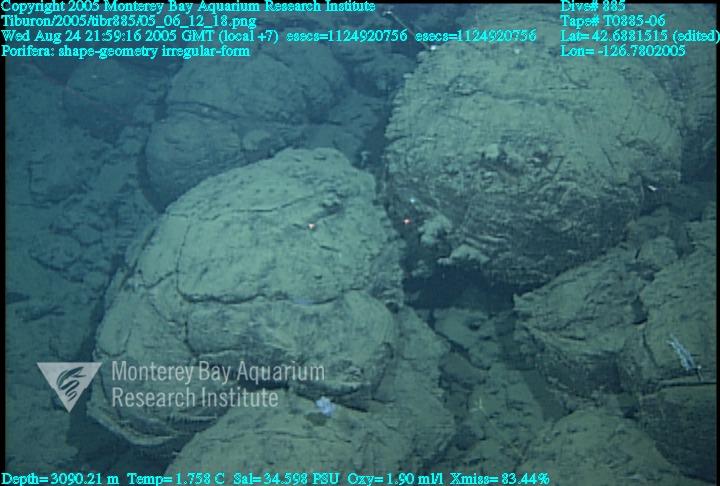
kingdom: Animalia
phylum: Porifera
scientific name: Porifera
